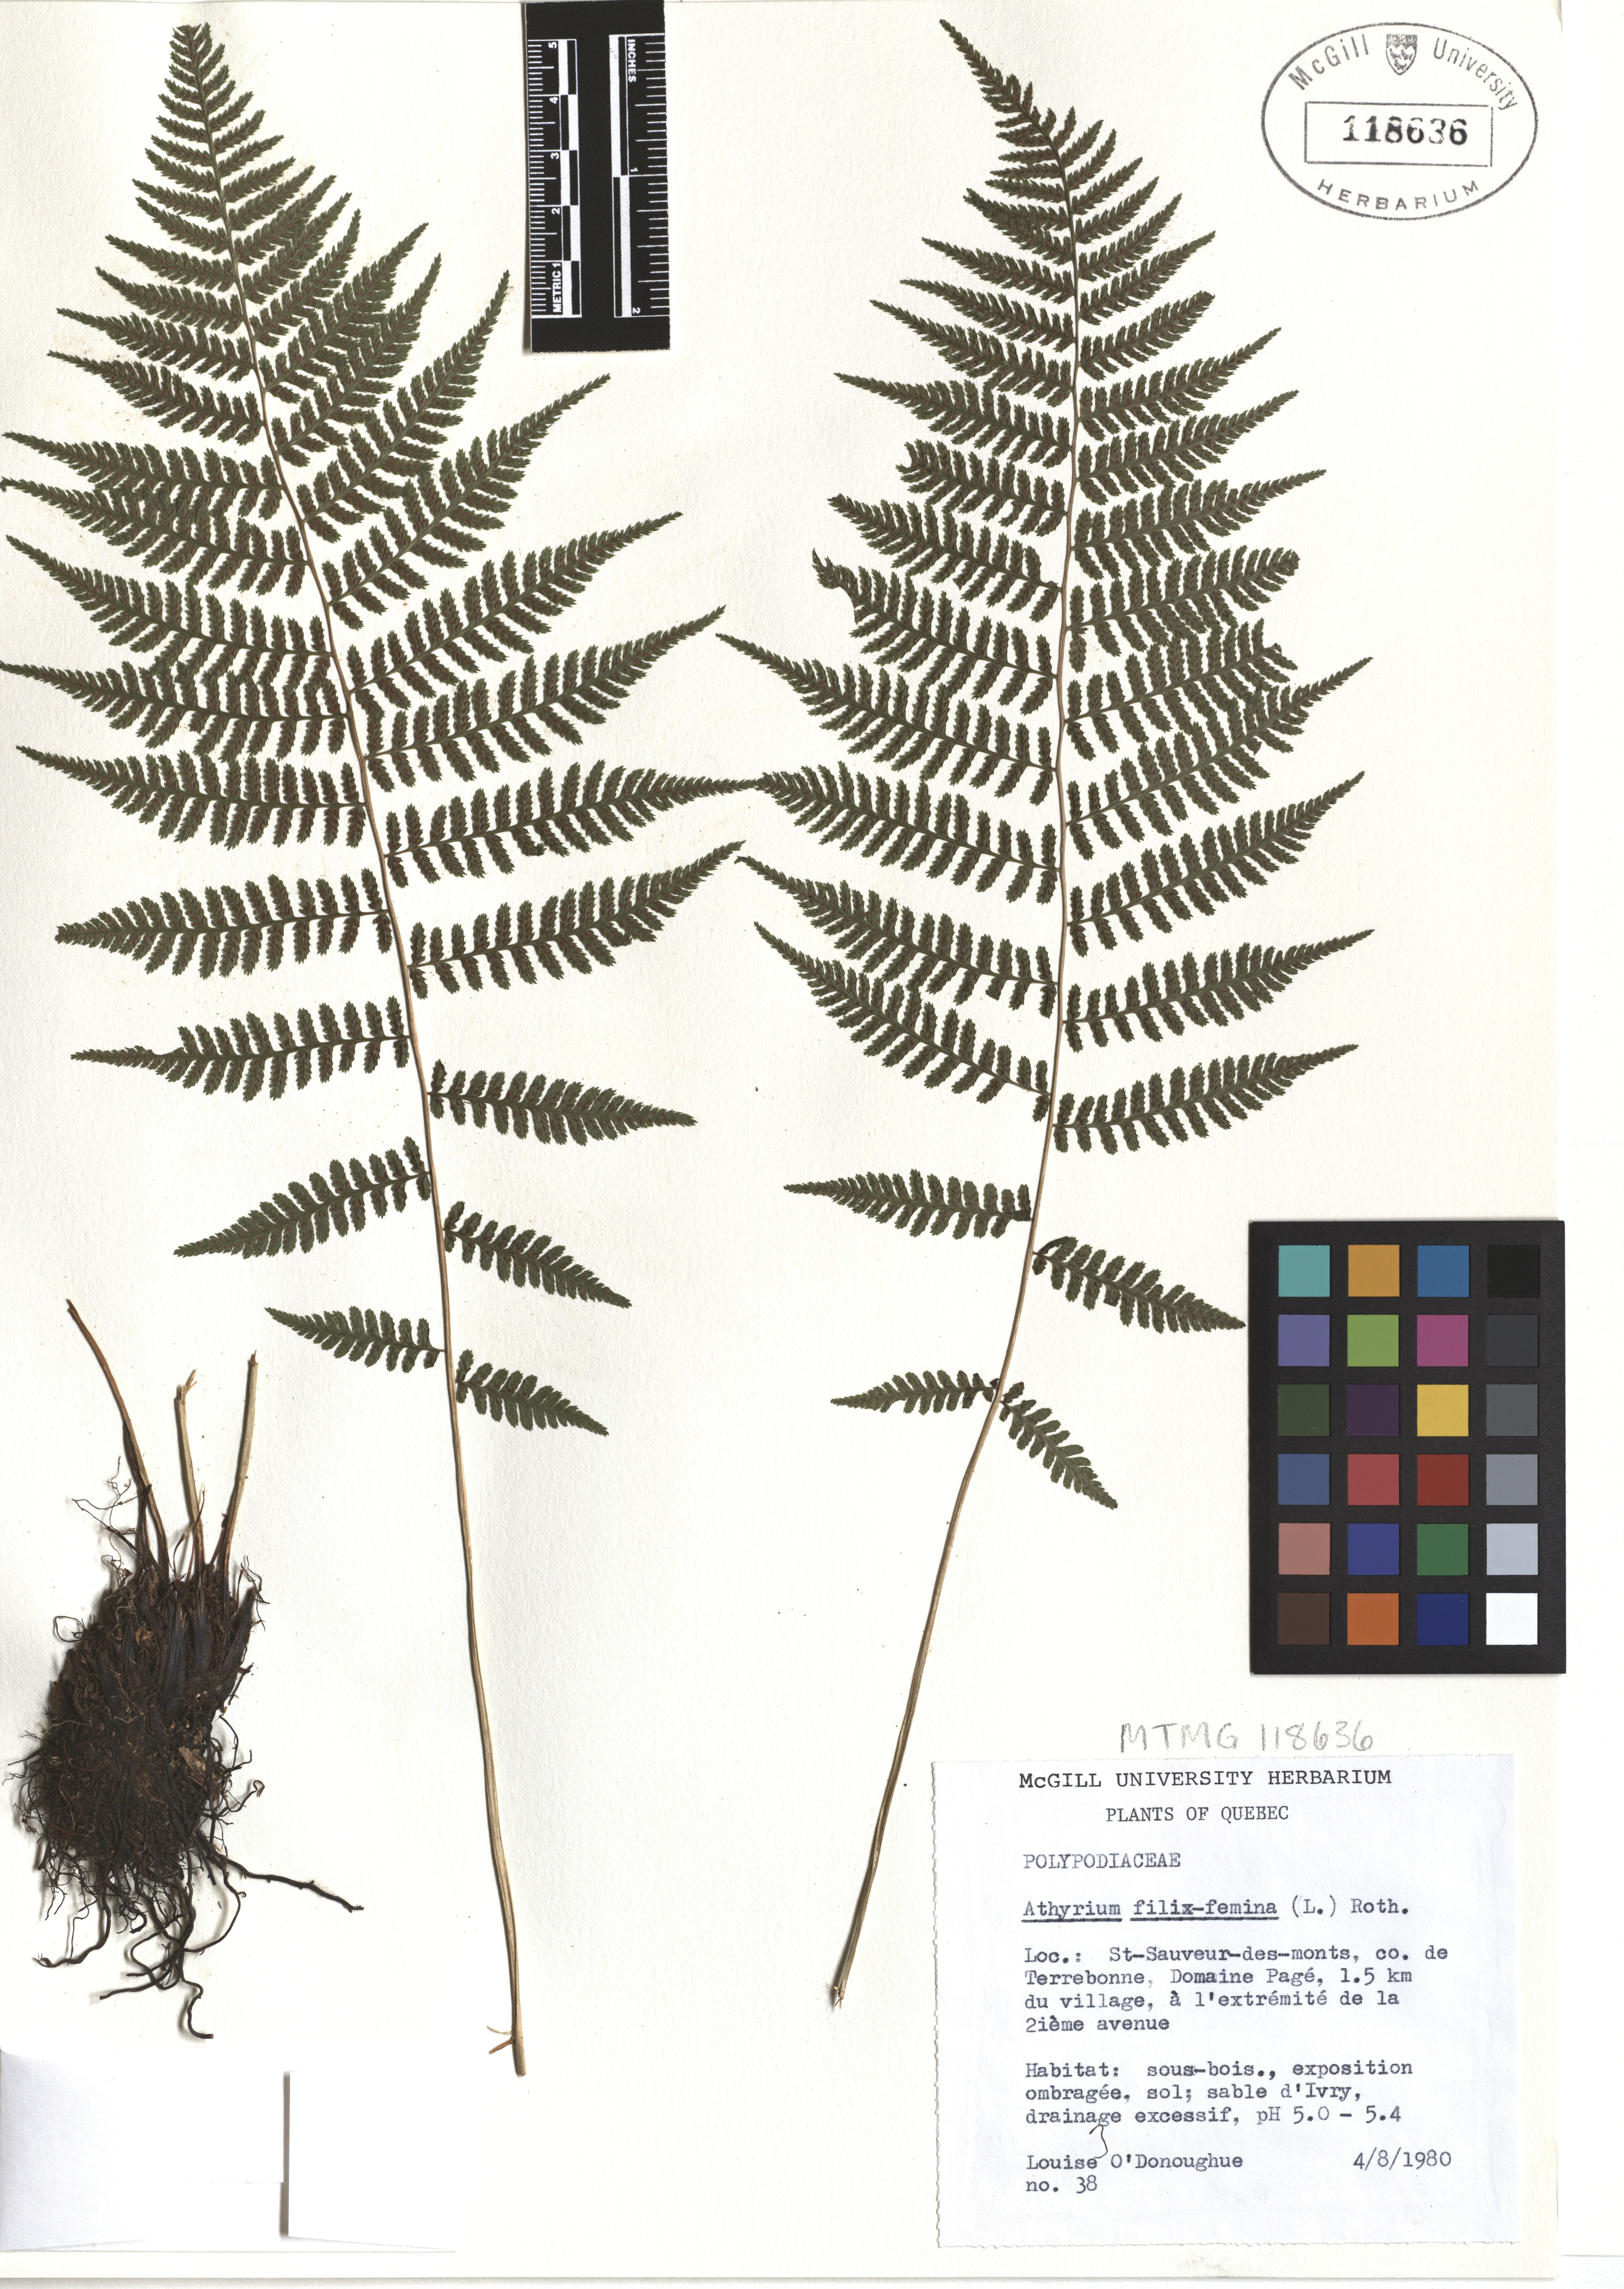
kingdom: Plantae
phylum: Tracheophyta
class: Polypodiopsida
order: Polypodiales
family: Athyriaceae
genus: Athyrium
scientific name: Athyrium filix-femina
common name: Lady fern
